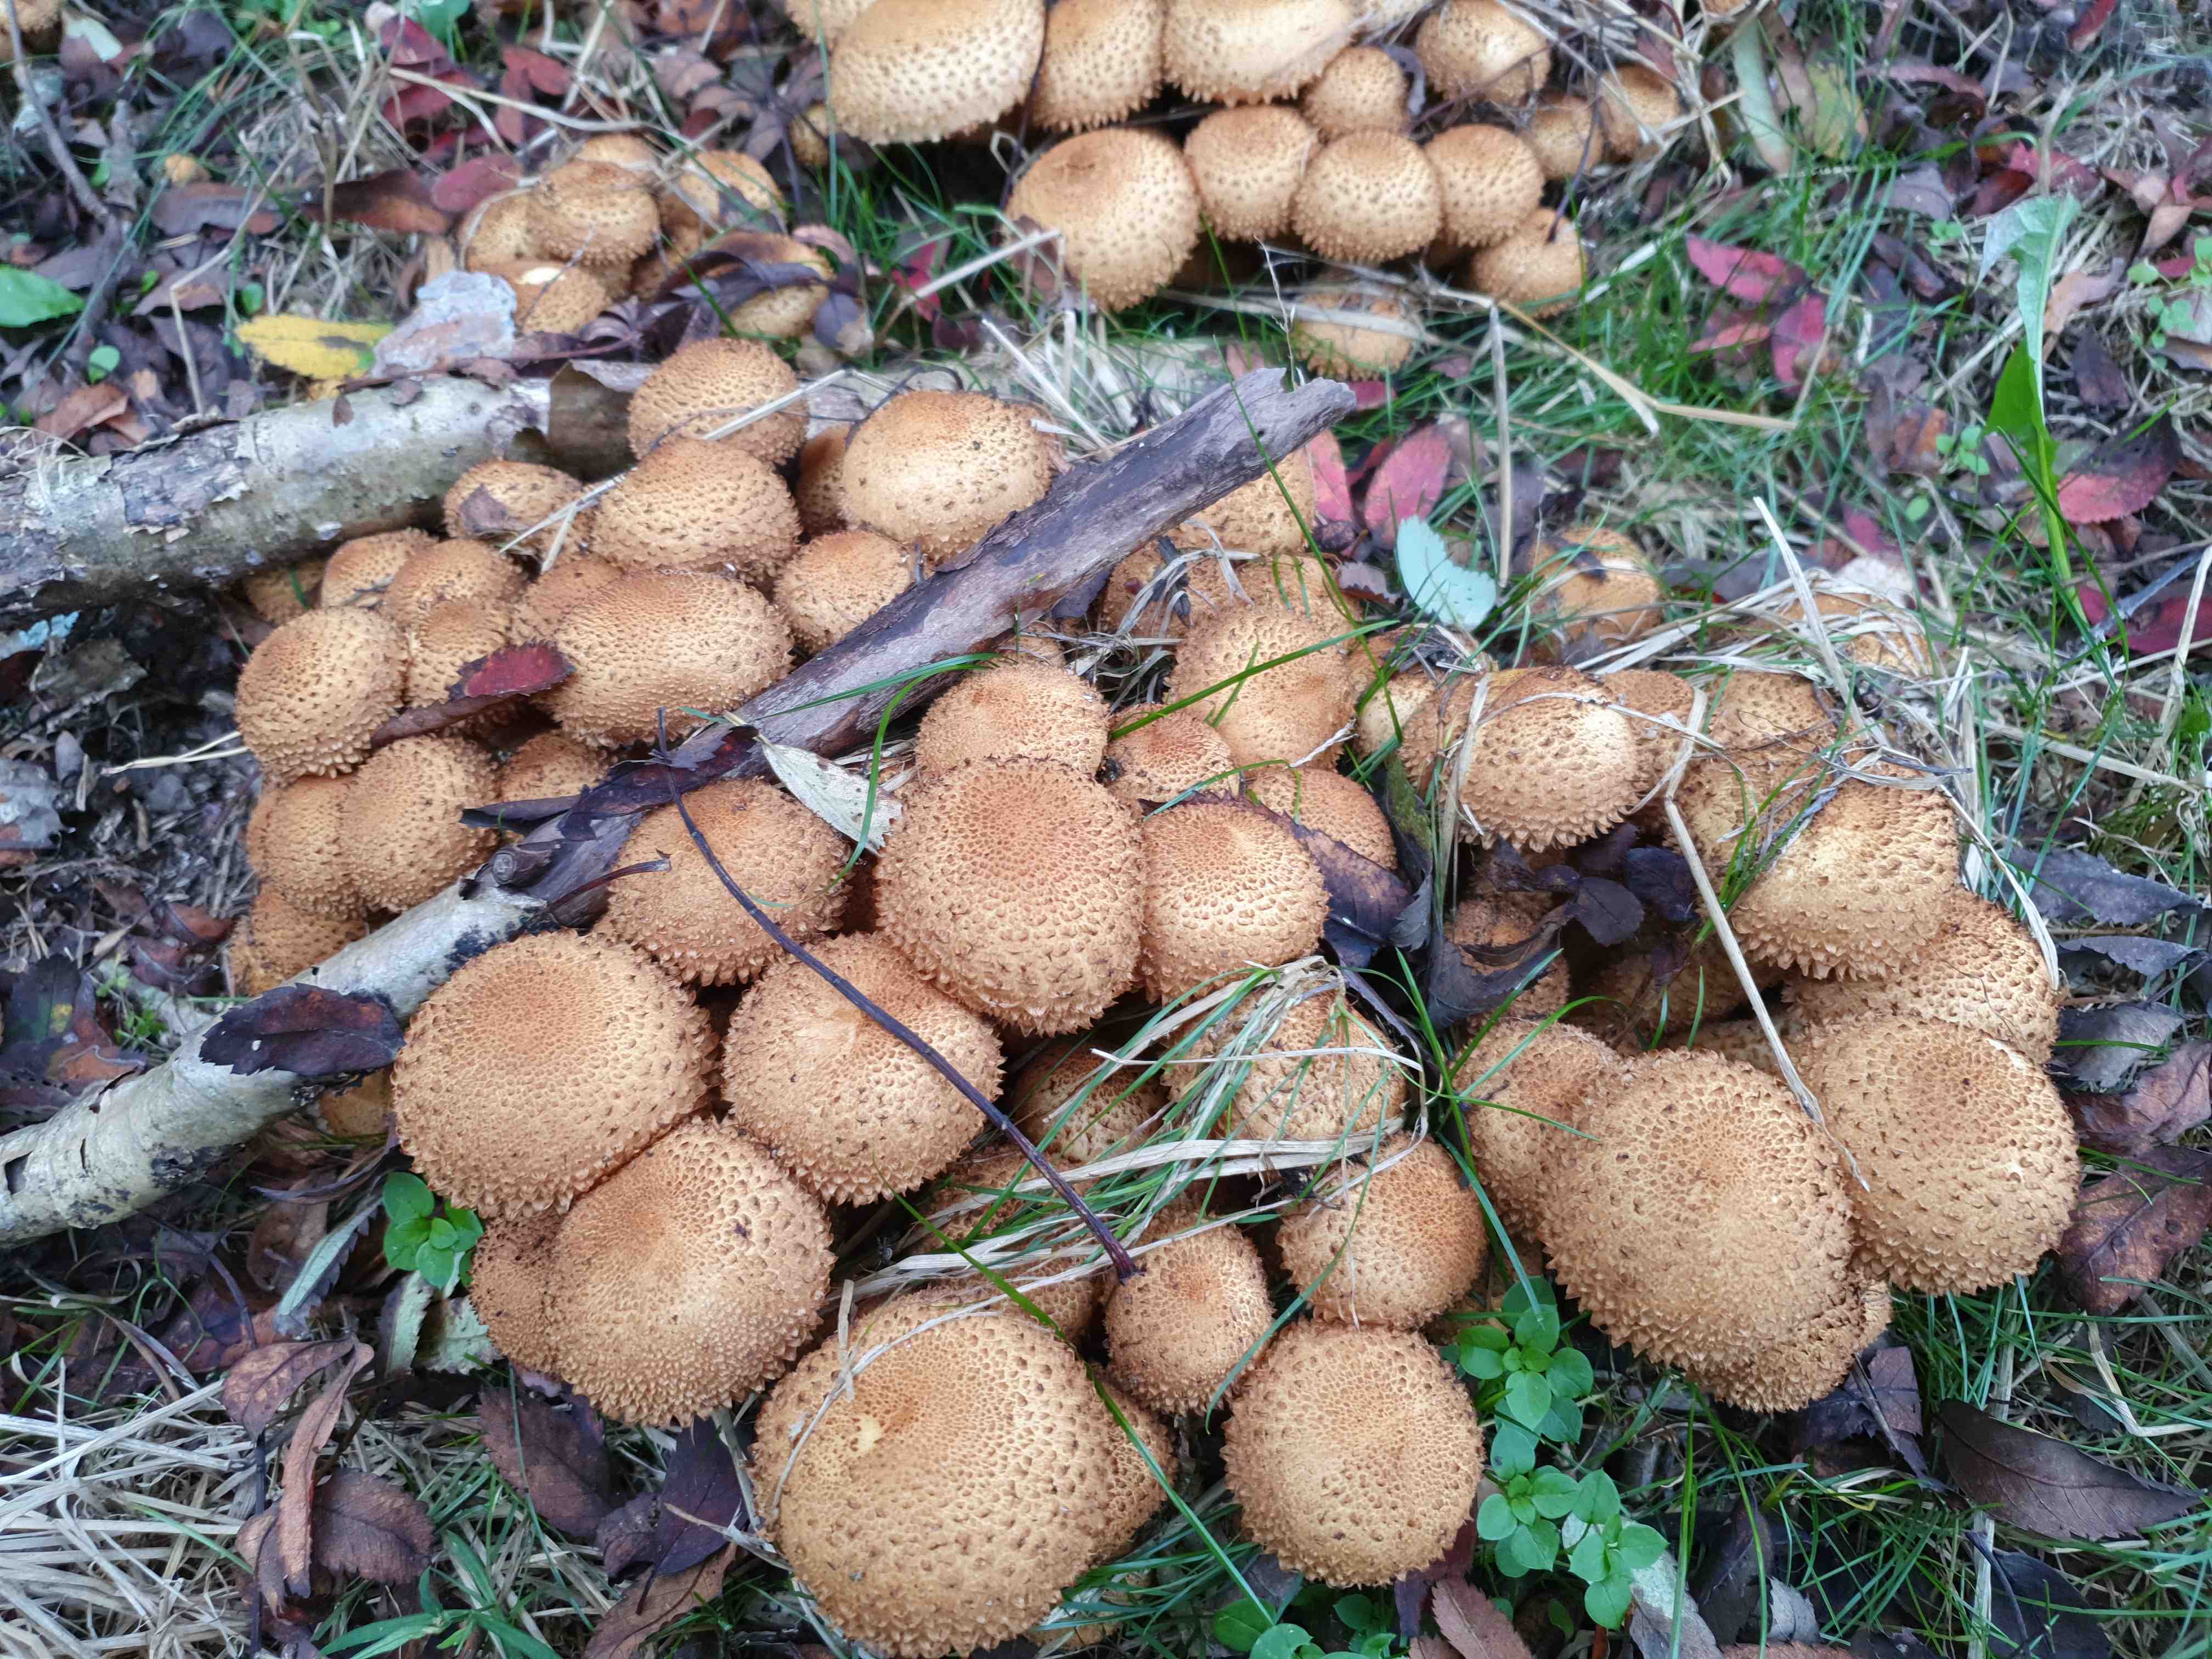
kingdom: Fungi
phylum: Basidiomycota
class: Agaricomycetes
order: Agaricales
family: Strophariaceae
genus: Pholiota
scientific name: Pholiota squarrosa
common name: krumskællet skælhat
